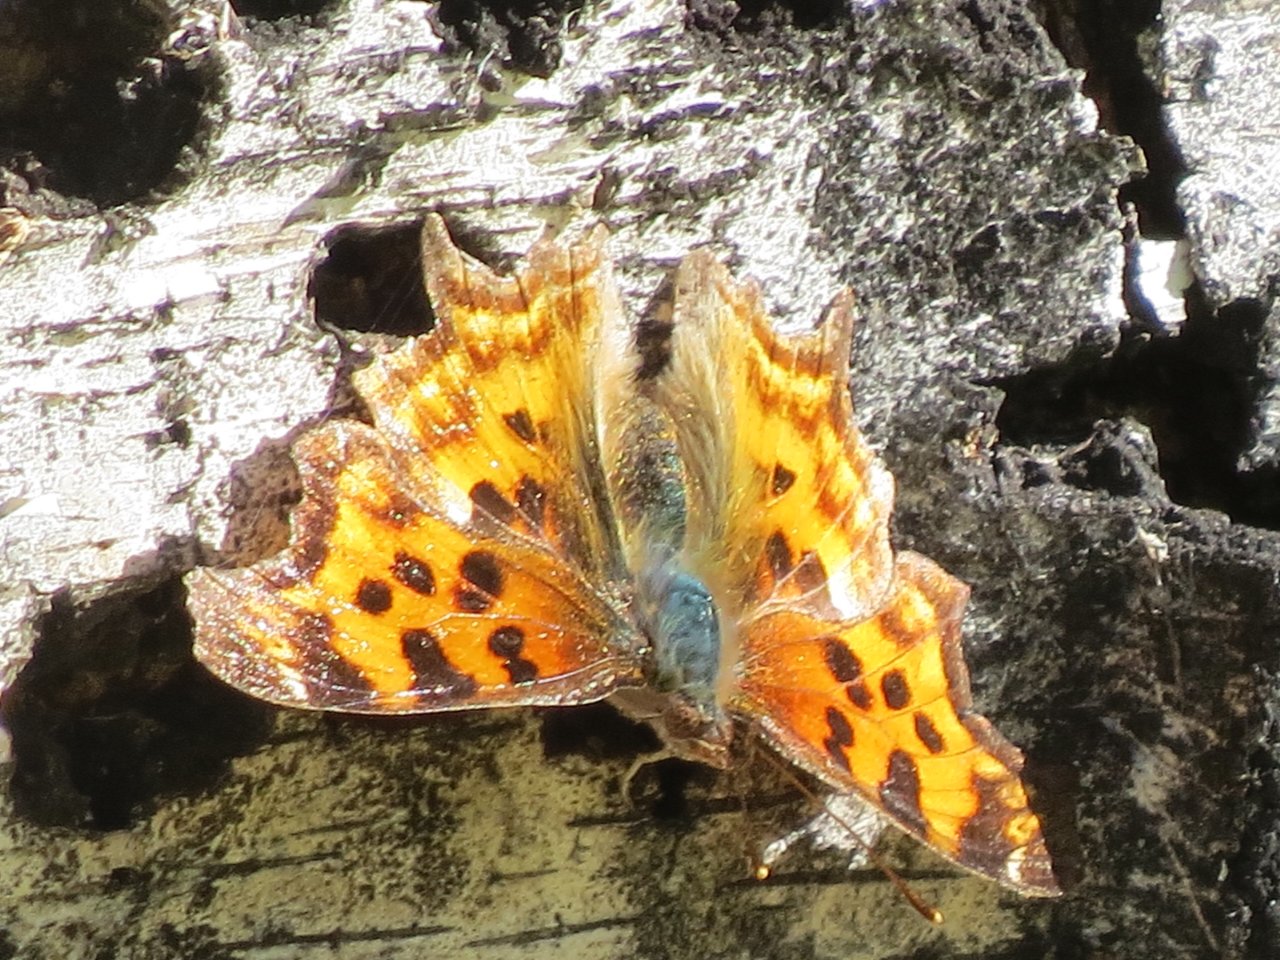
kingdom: Animalia
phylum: Arthropoda
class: Insecta
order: Lepidoptera
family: Nymphalidae
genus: Polygonia
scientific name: Polygonia satyrus
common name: Satyr Comma
